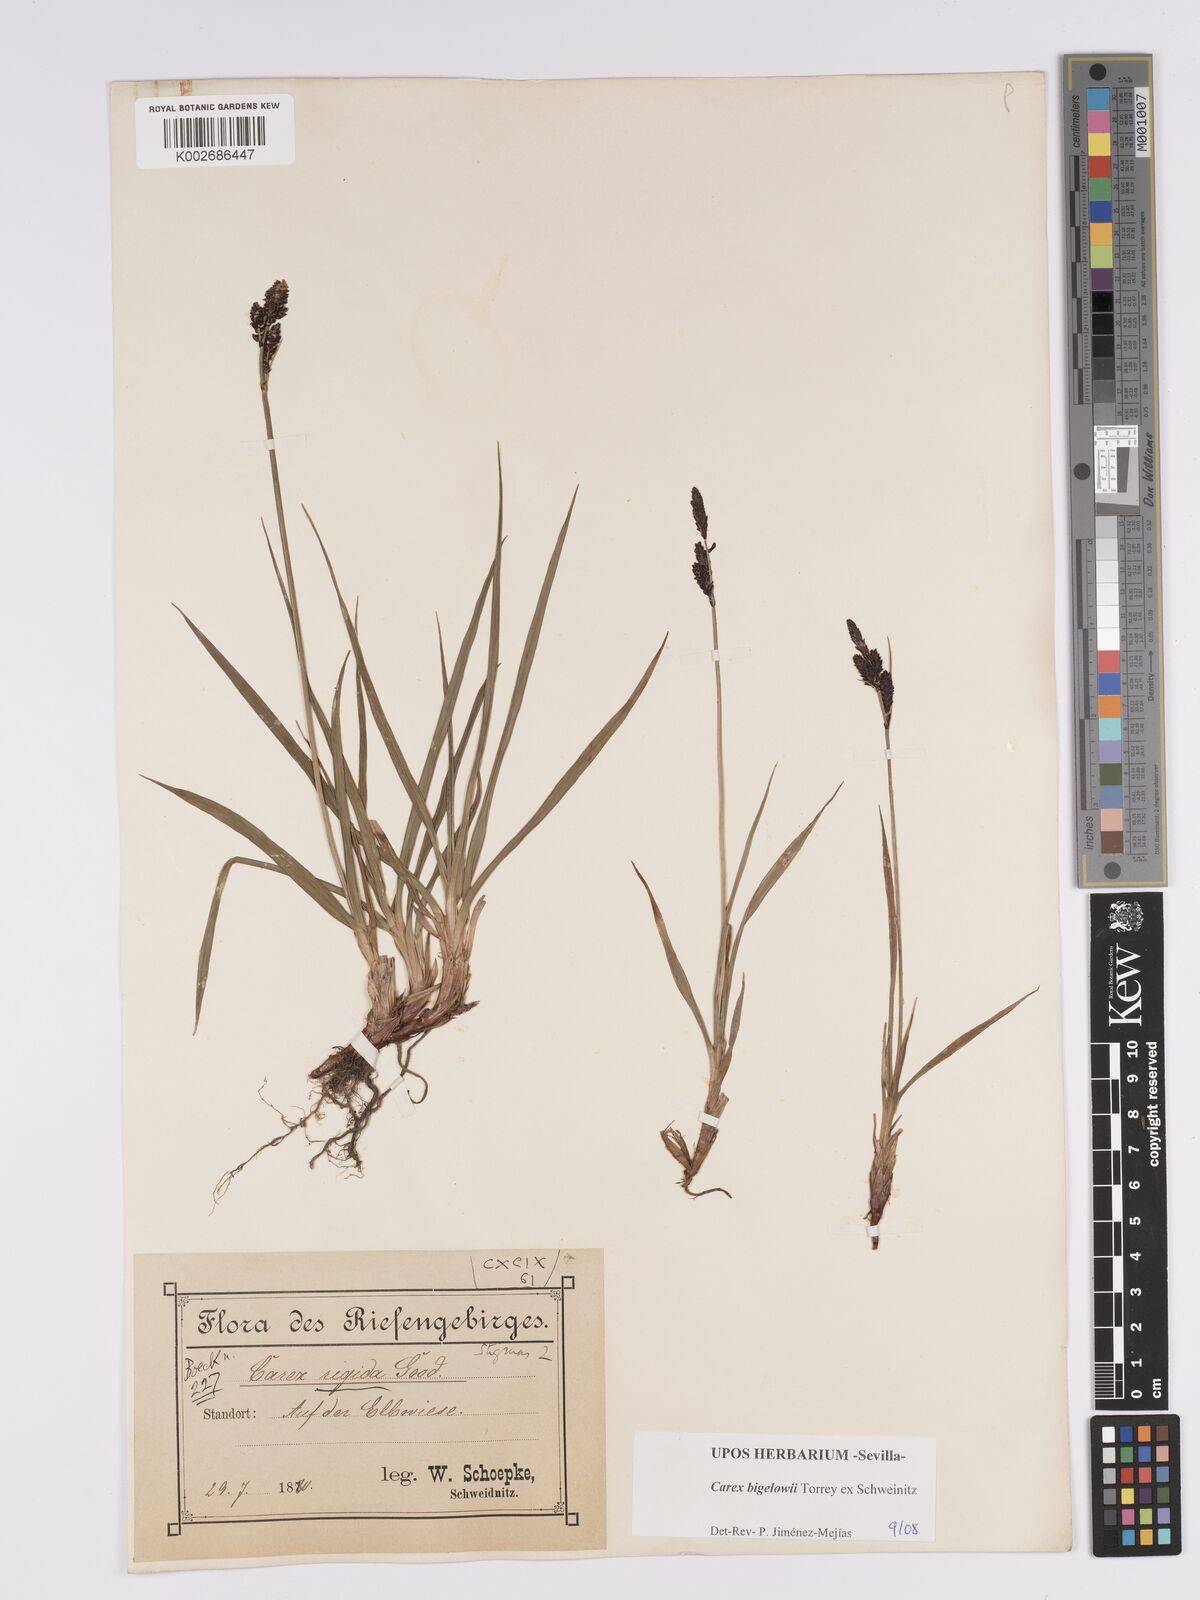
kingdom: Plantae
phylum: Tracheophyta
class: Liliopsida
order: Poales
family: Cyperaceae
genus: Carex
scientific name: Carex bigelowii
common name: Stiff sedge
